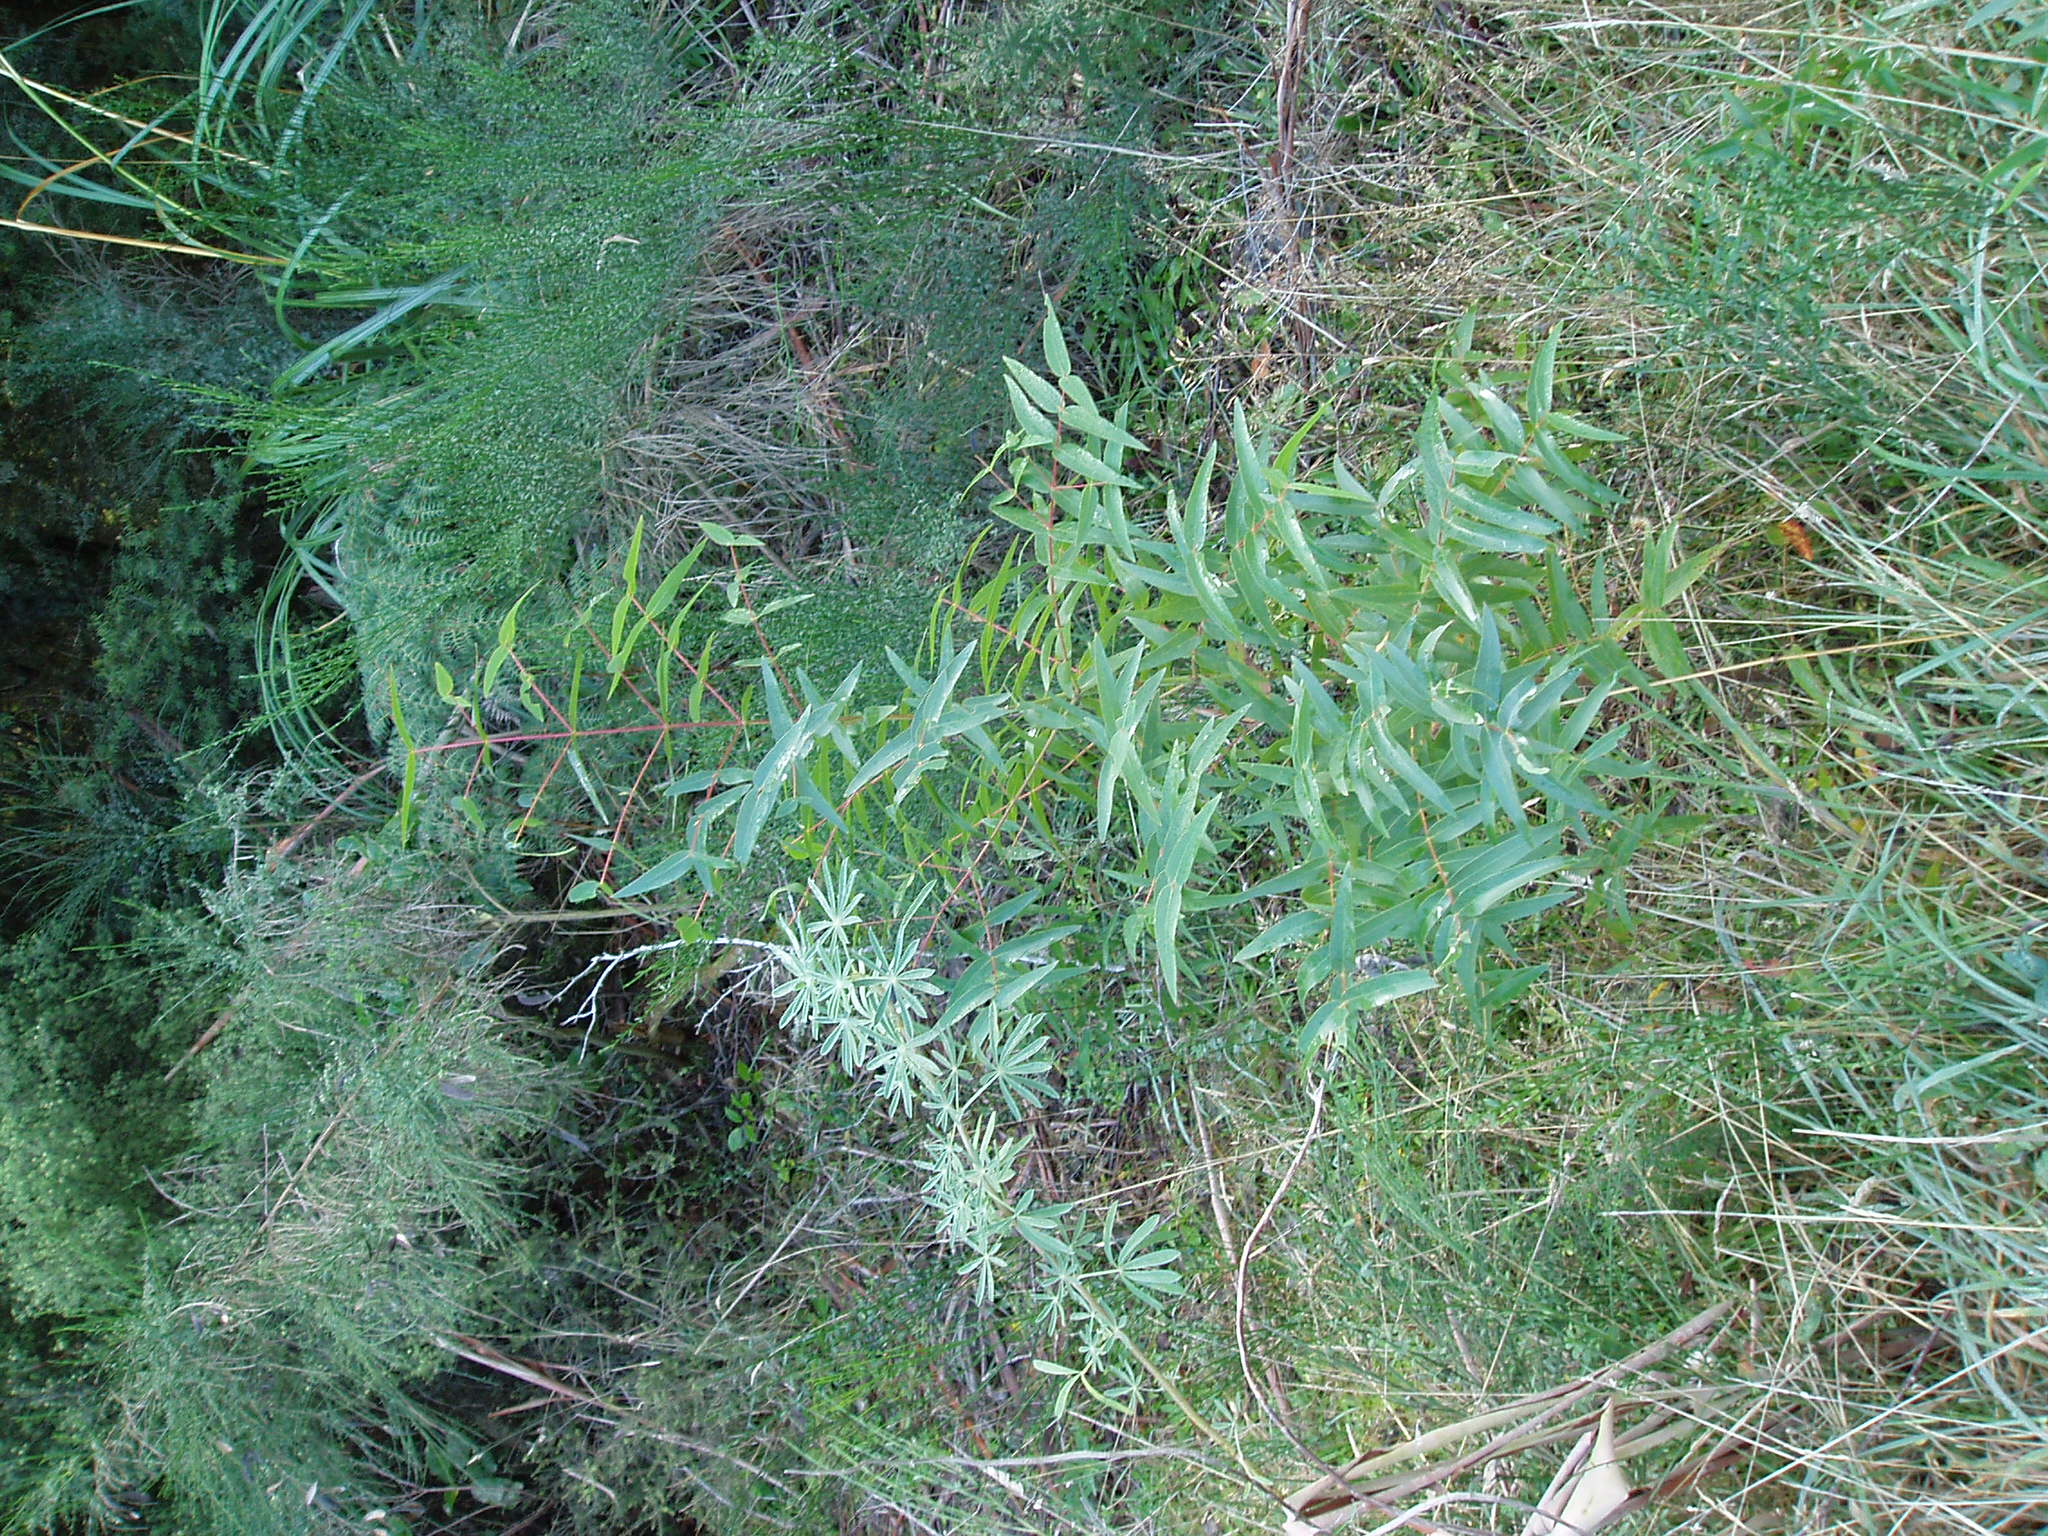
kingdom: Plantae
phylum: Tracheophyta
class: Magnoliopsida
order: Myrtales
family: Myrtaceae
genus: Eucalyptus
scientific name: Eucalyptus viminalis
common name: Manna gum
